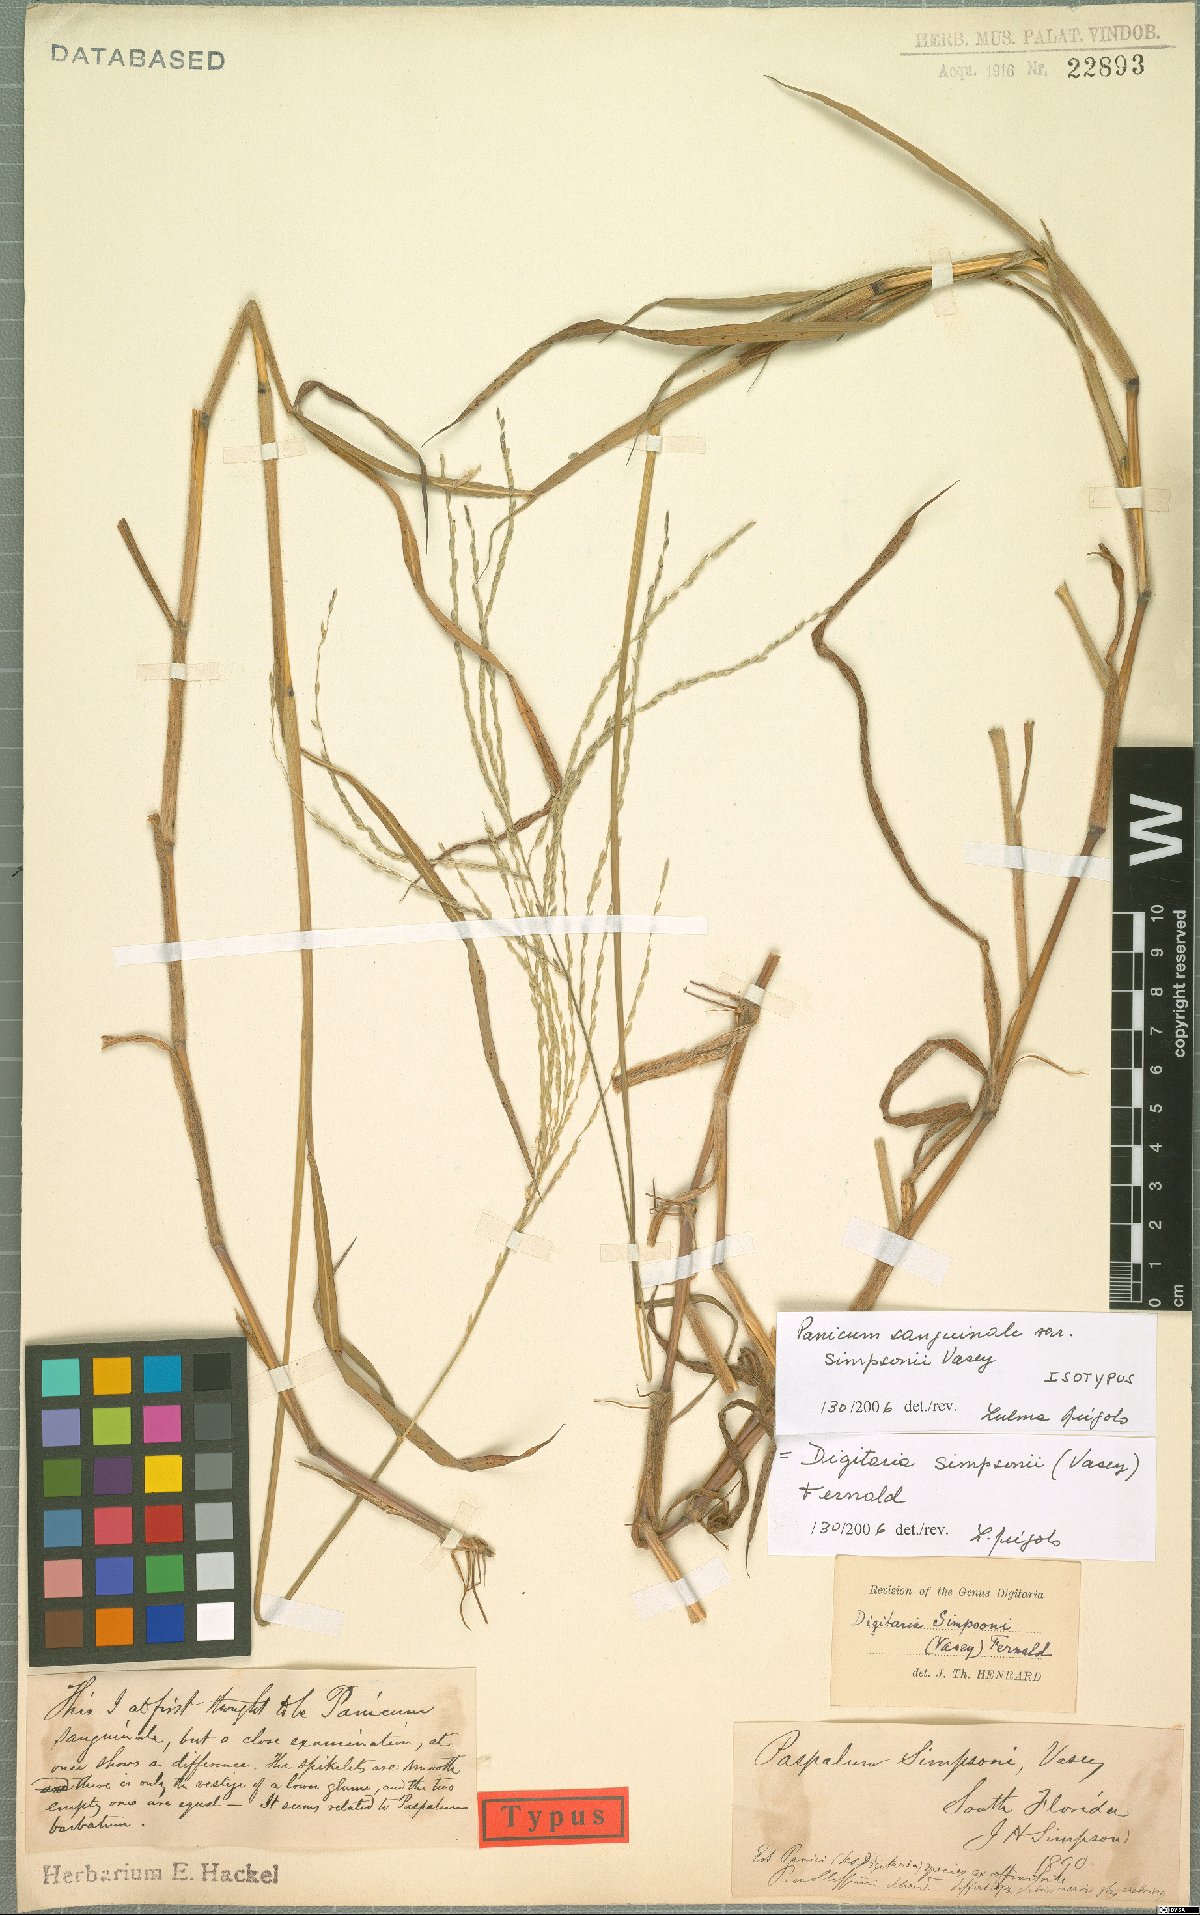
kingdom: Plantae
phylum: Tracheophyta
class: Liliopsida
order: Poales
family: Poaceae
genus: Digitaria
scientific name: Digitaria simpsonii
